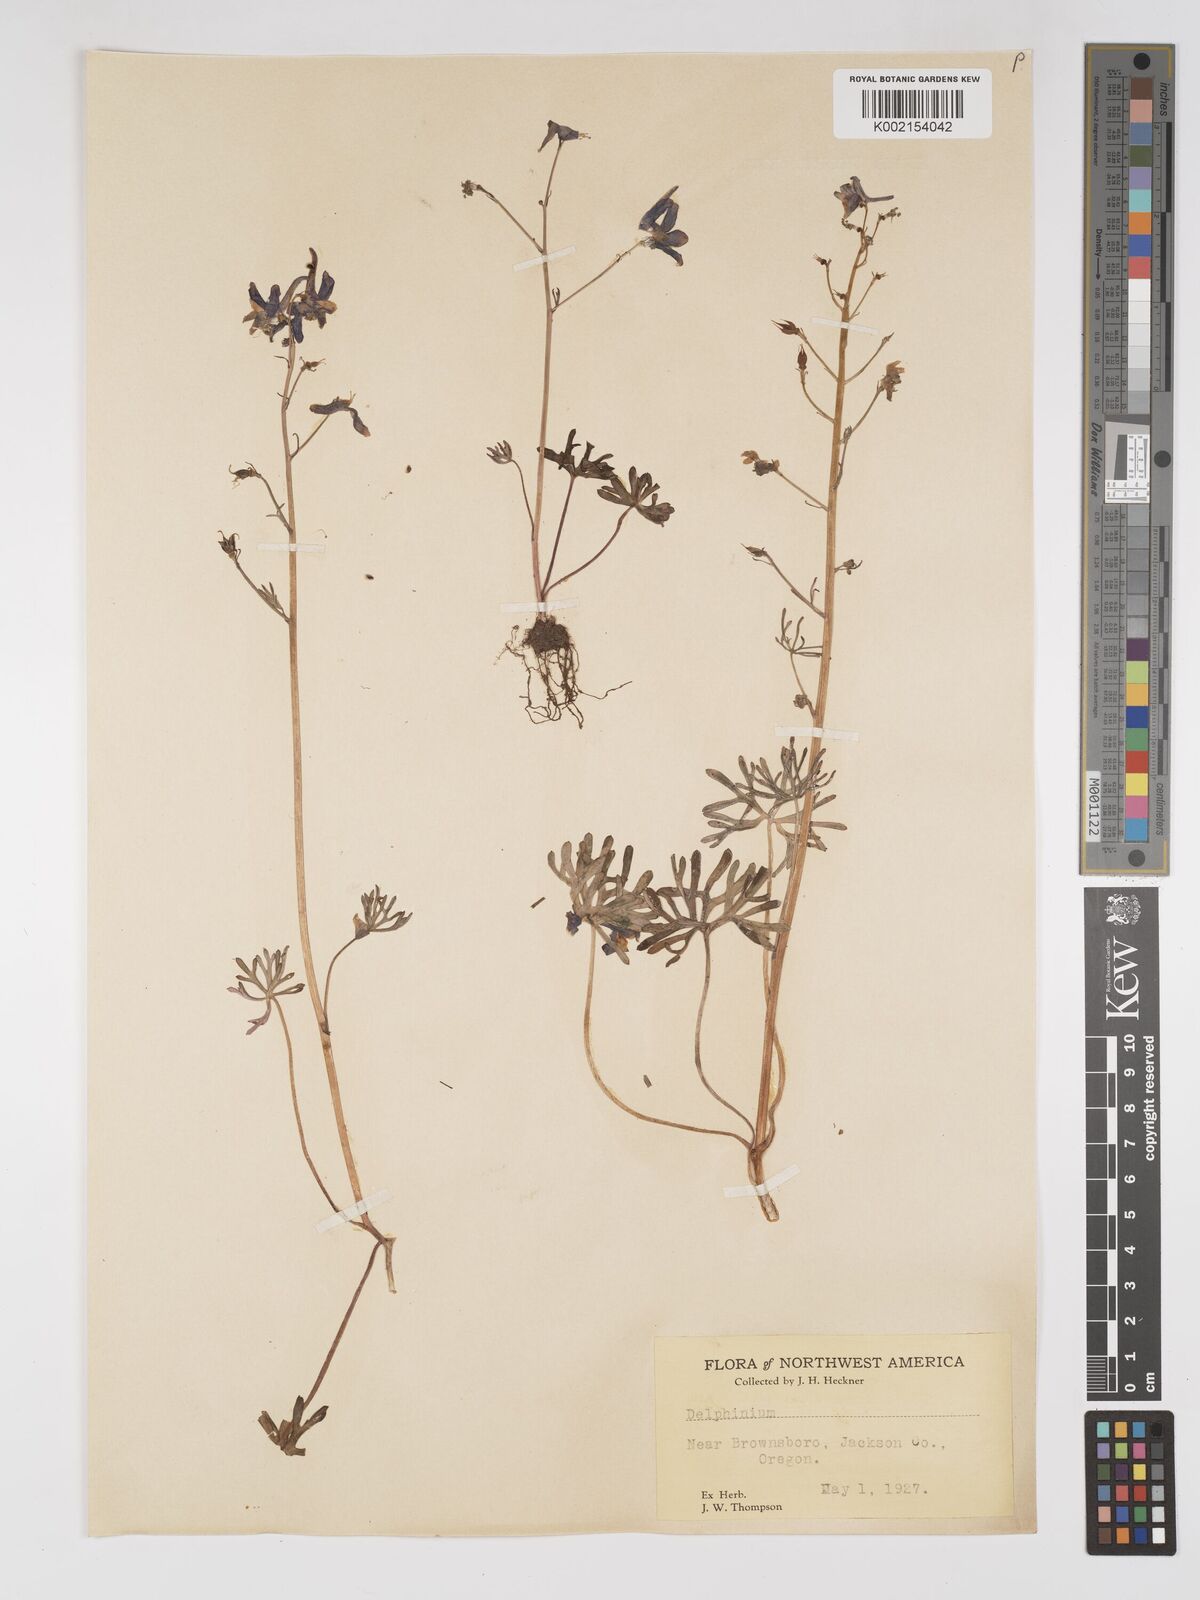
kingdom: Plantae
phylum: Tracheophyta
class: Magnoliopsida
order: Ranunculales
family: Ranunculaceae
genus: Delphinium
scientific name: Delphinium
